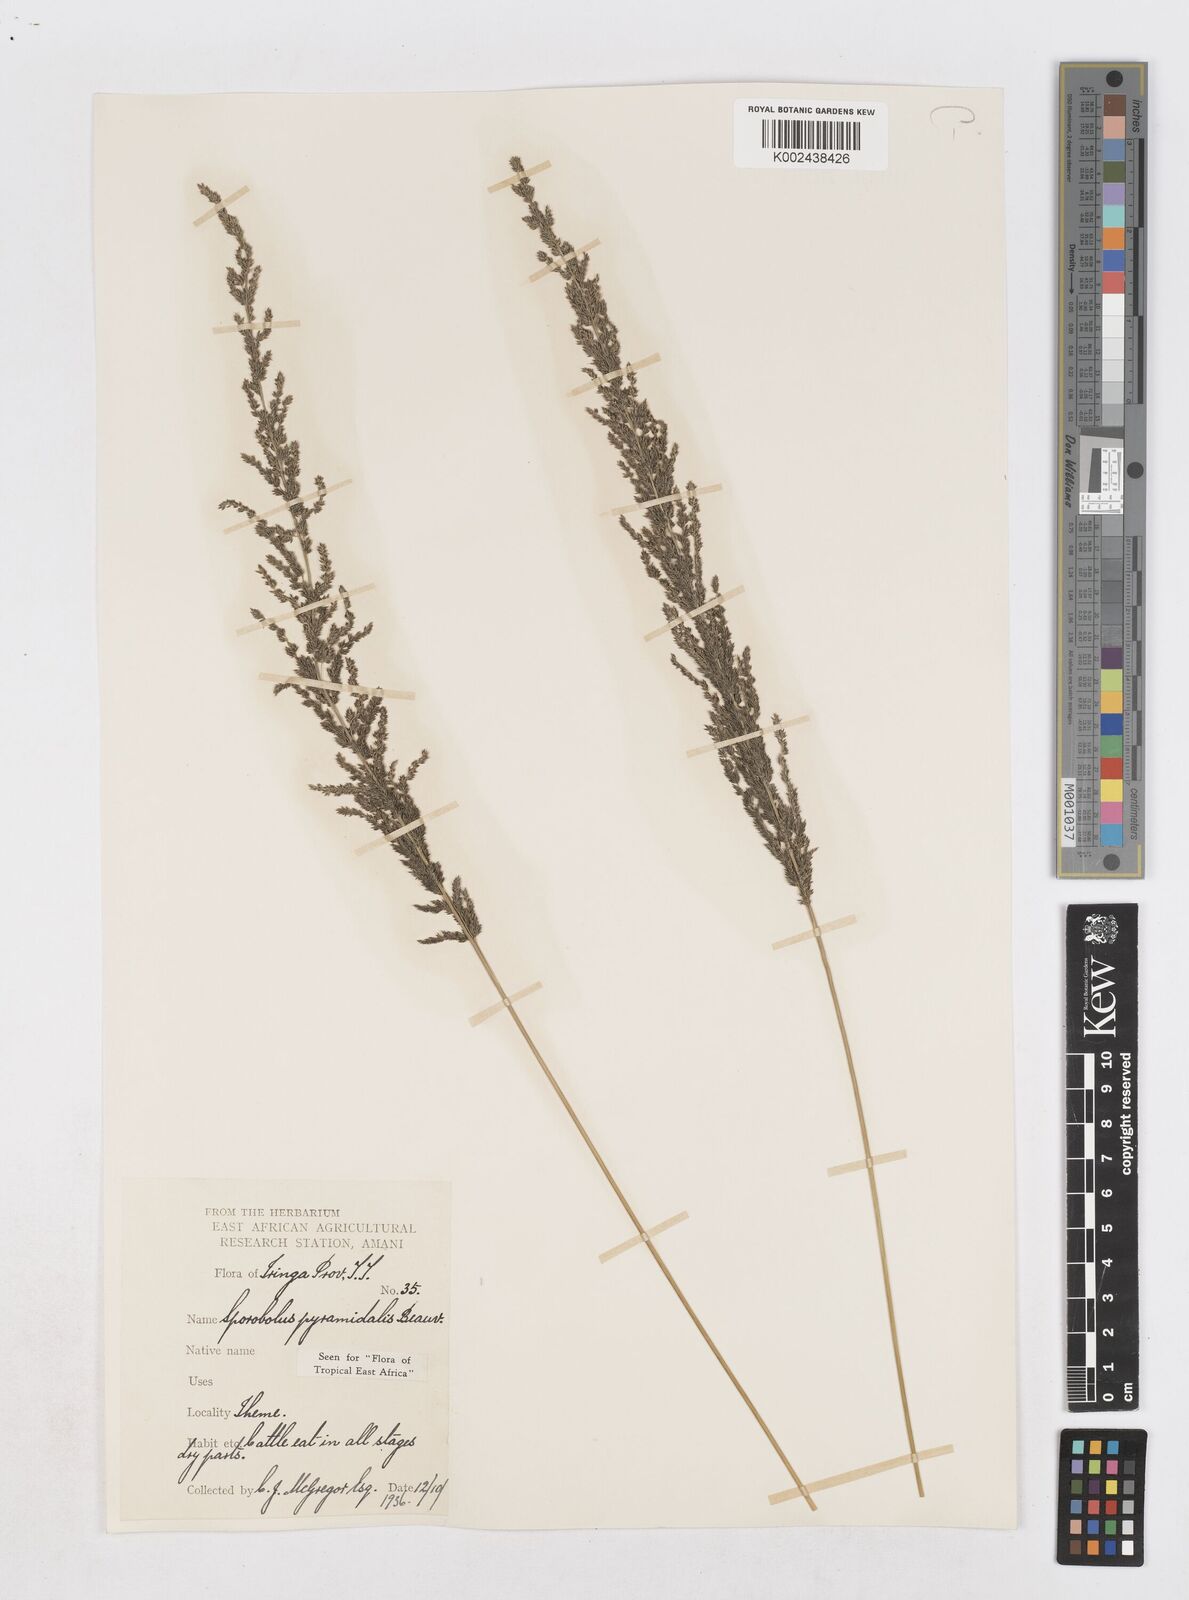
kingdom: Plantae
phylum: Tracheophyta
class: Liliopsida
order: Poales
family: Poaceae
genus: Sporobolus
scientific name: Sporobolus pyramidalis
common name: West indian dropseed
